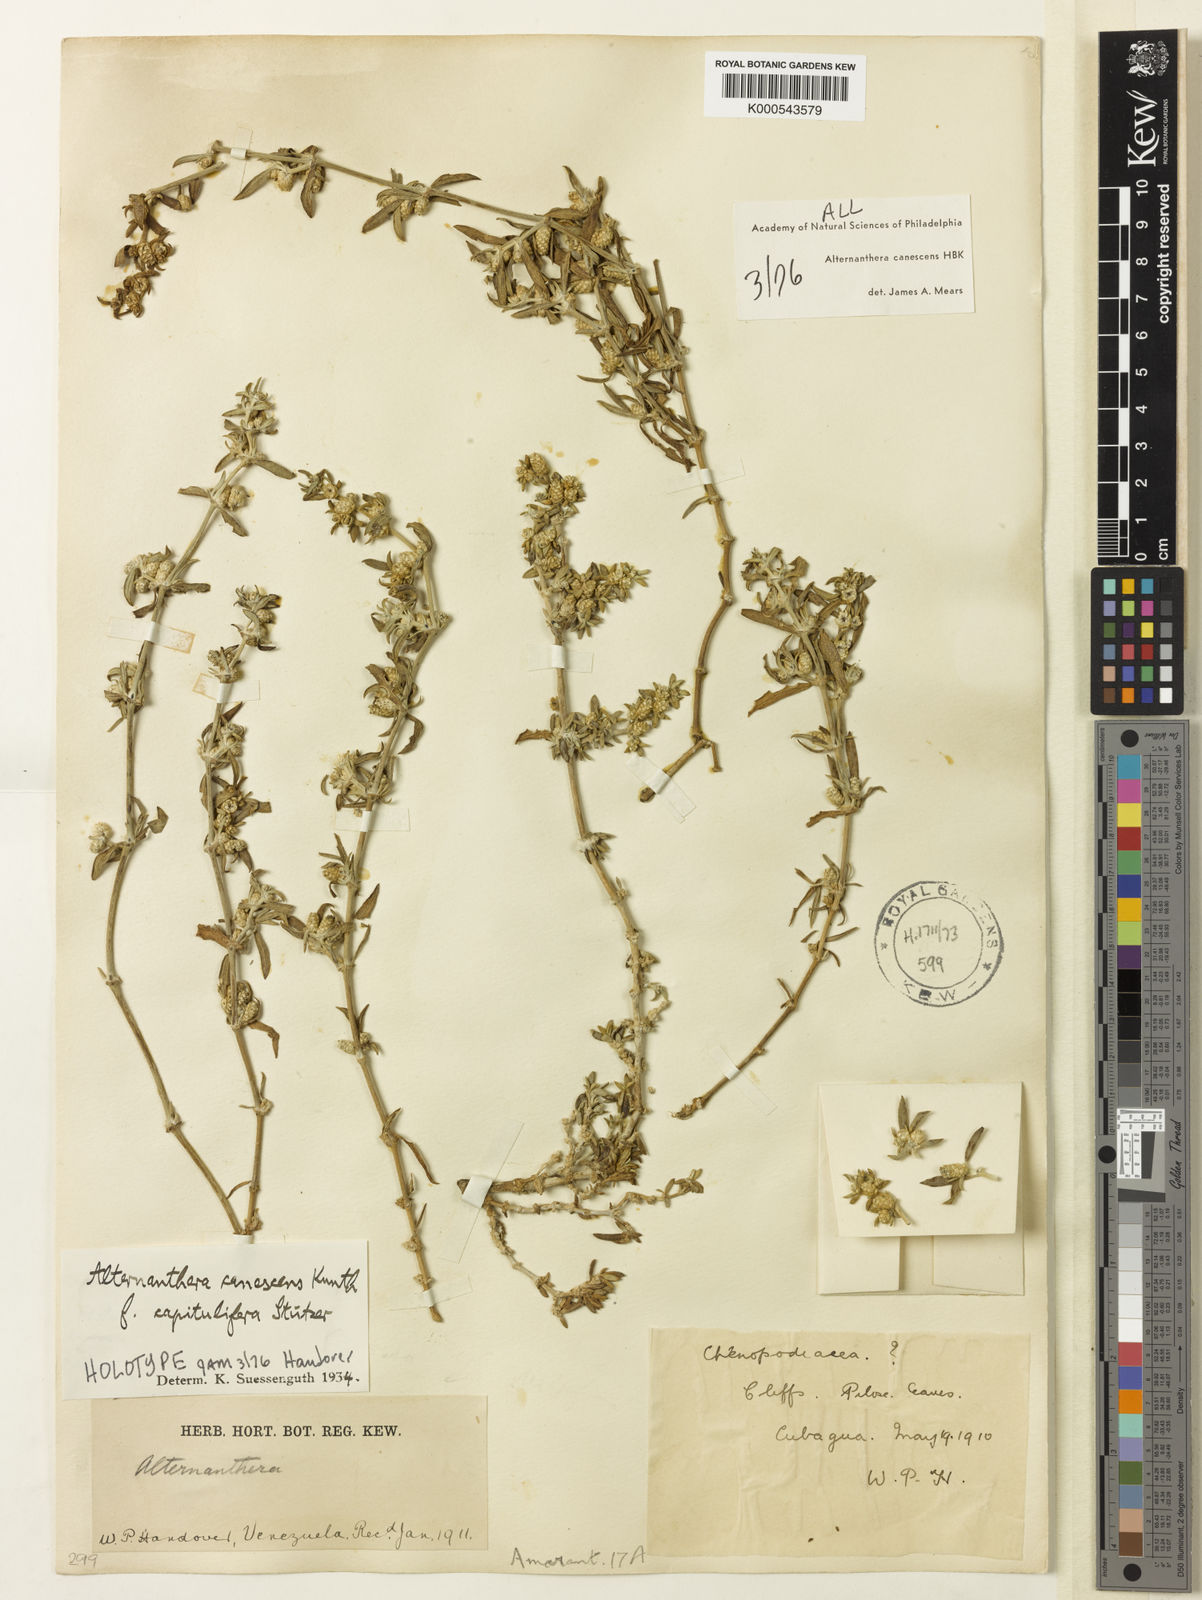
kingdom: Plantae
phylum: Tracheophyta
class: Magnoliopsida
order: Caryophyllales
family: Amaranthaceae
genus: Alternanthera
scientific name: Alternanthera canescens
